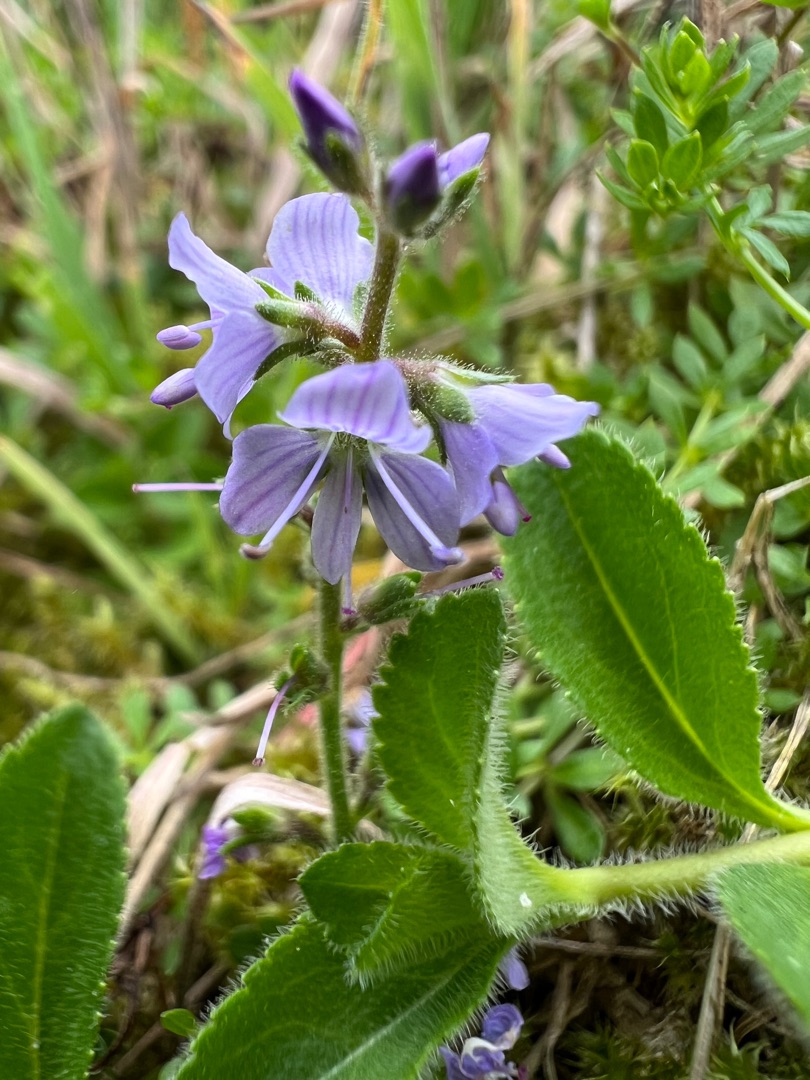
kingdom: Plantae
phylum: Tracheophyta
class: Magnoliopsida
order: Lamiales
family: Plantaginaceae
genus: Veronica
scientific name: Veronica officinalis
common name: Læge-ærenpris
